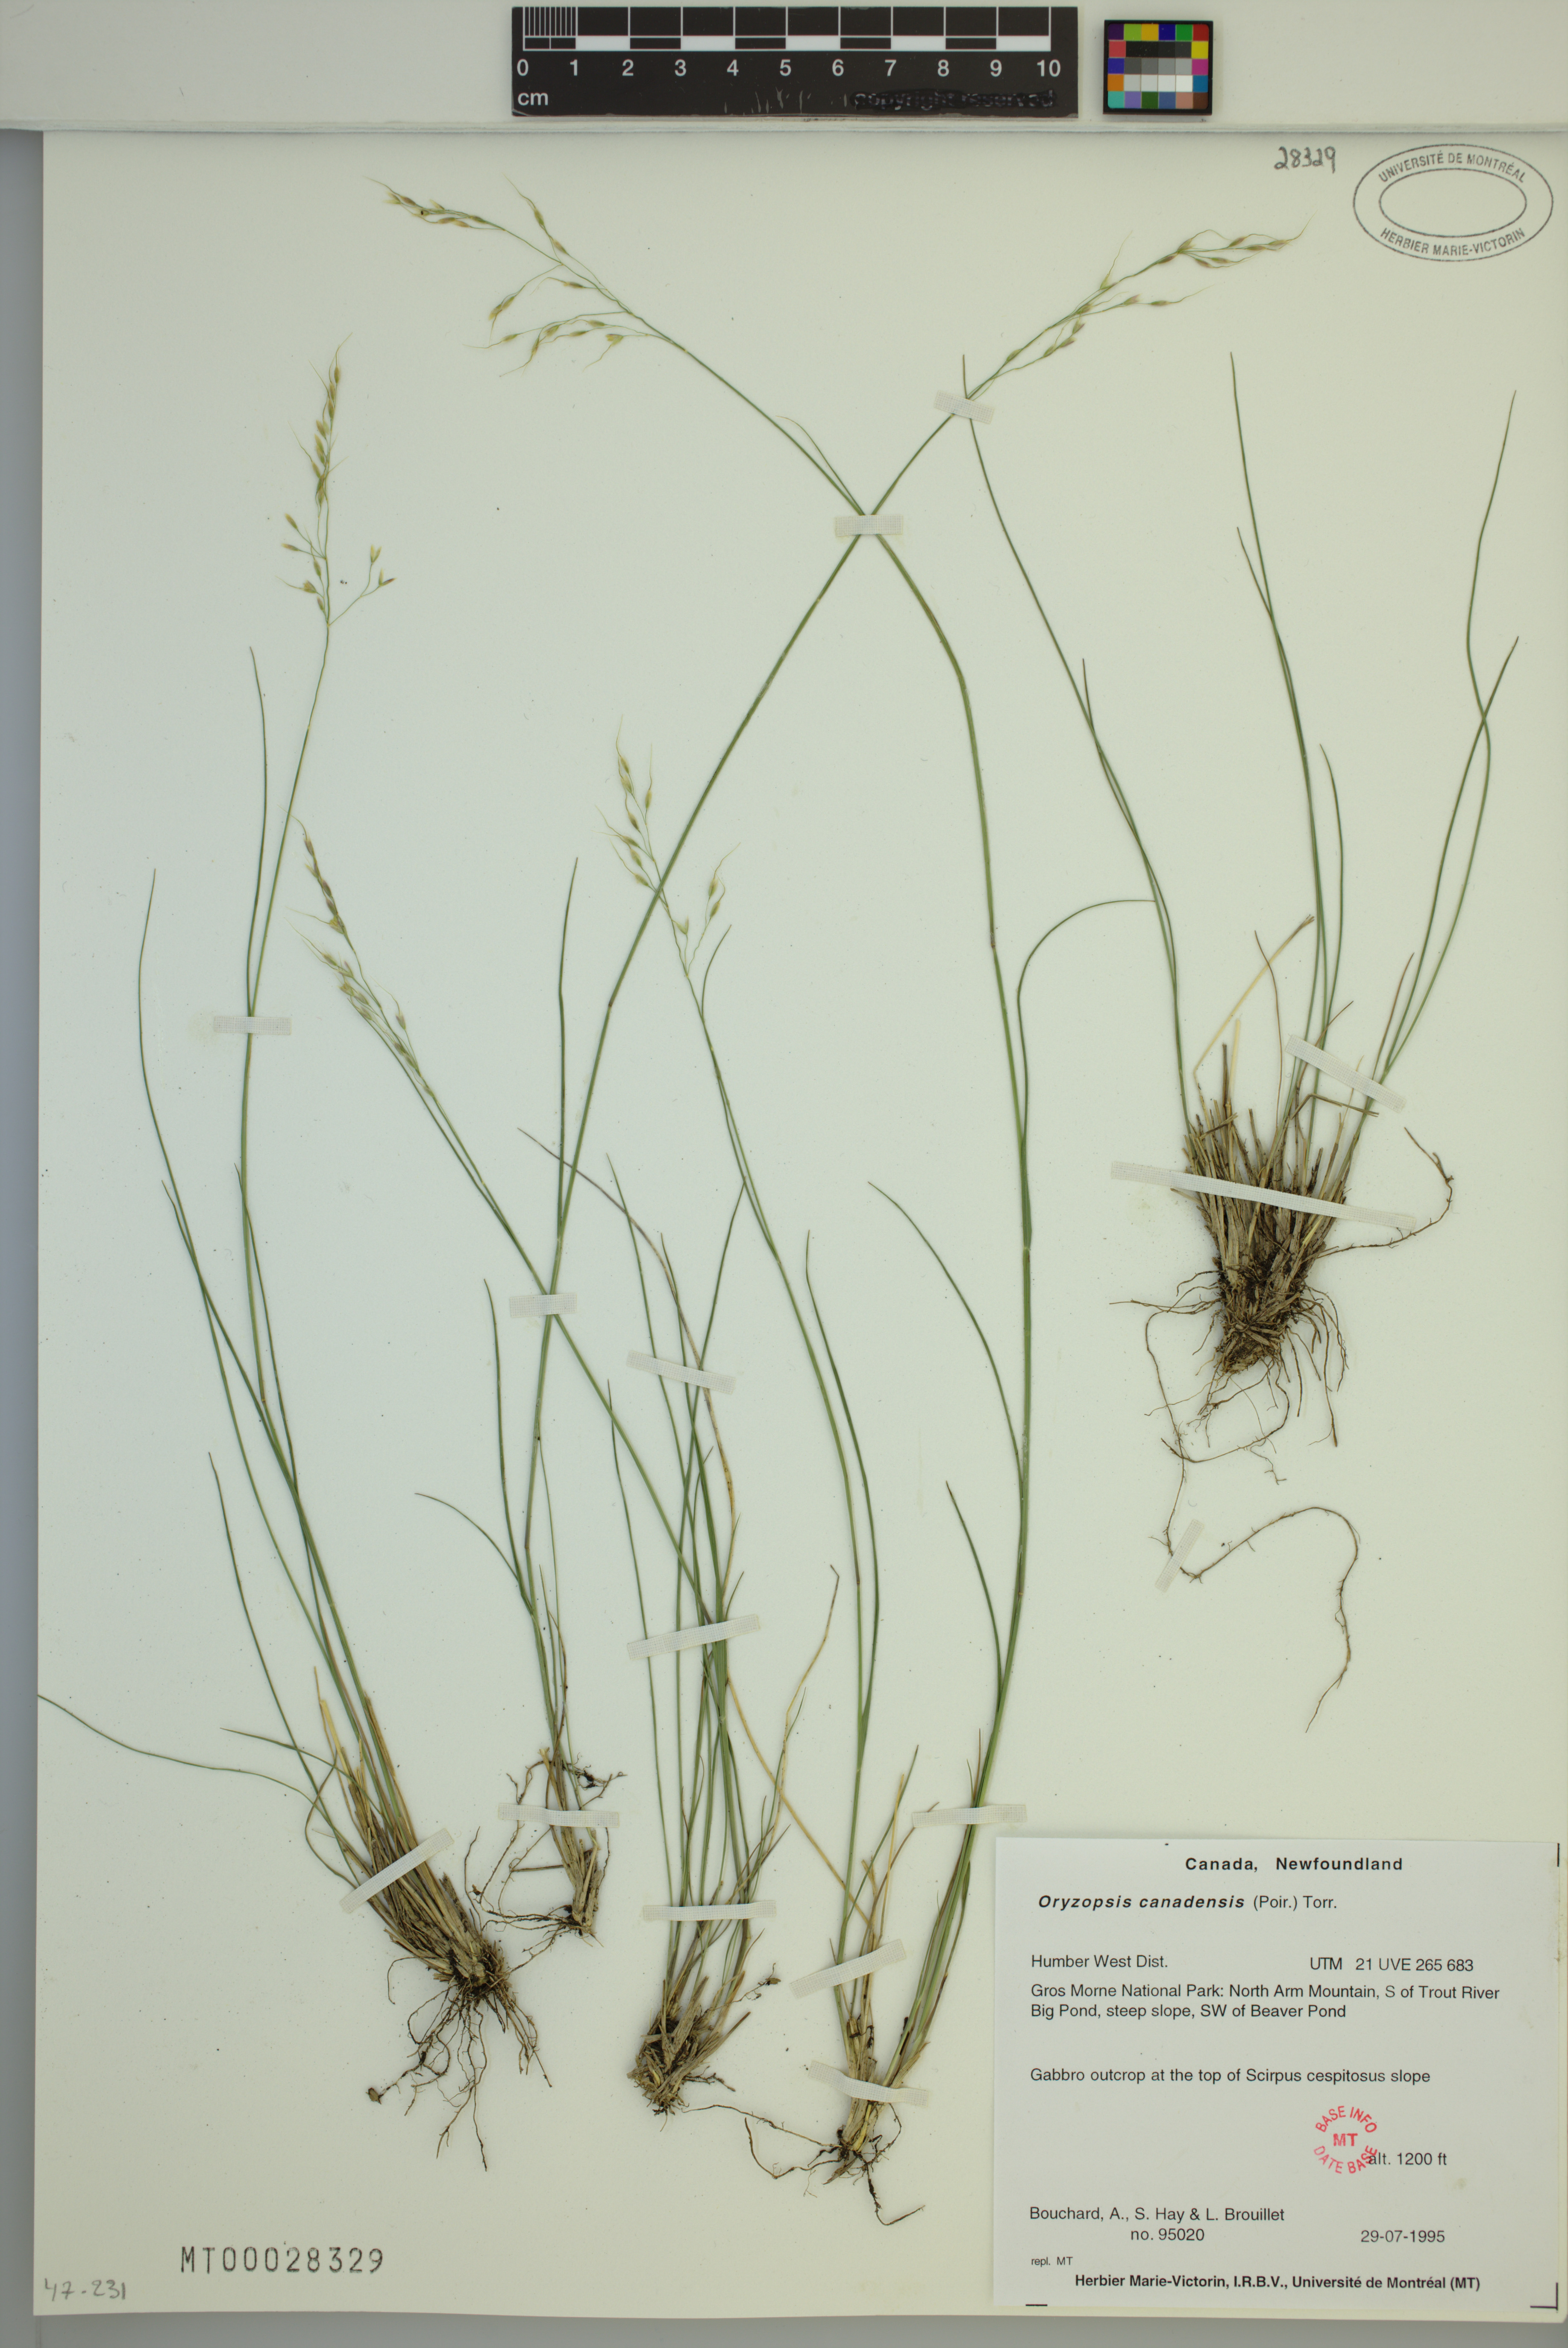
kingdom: Plantae
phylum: Tracheophyta
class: Liliopsida
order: Poales
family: Poaceae
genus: Piptatheropsis
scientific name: Piptatheropsis canadensis
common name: Canada mountain ricegrass
